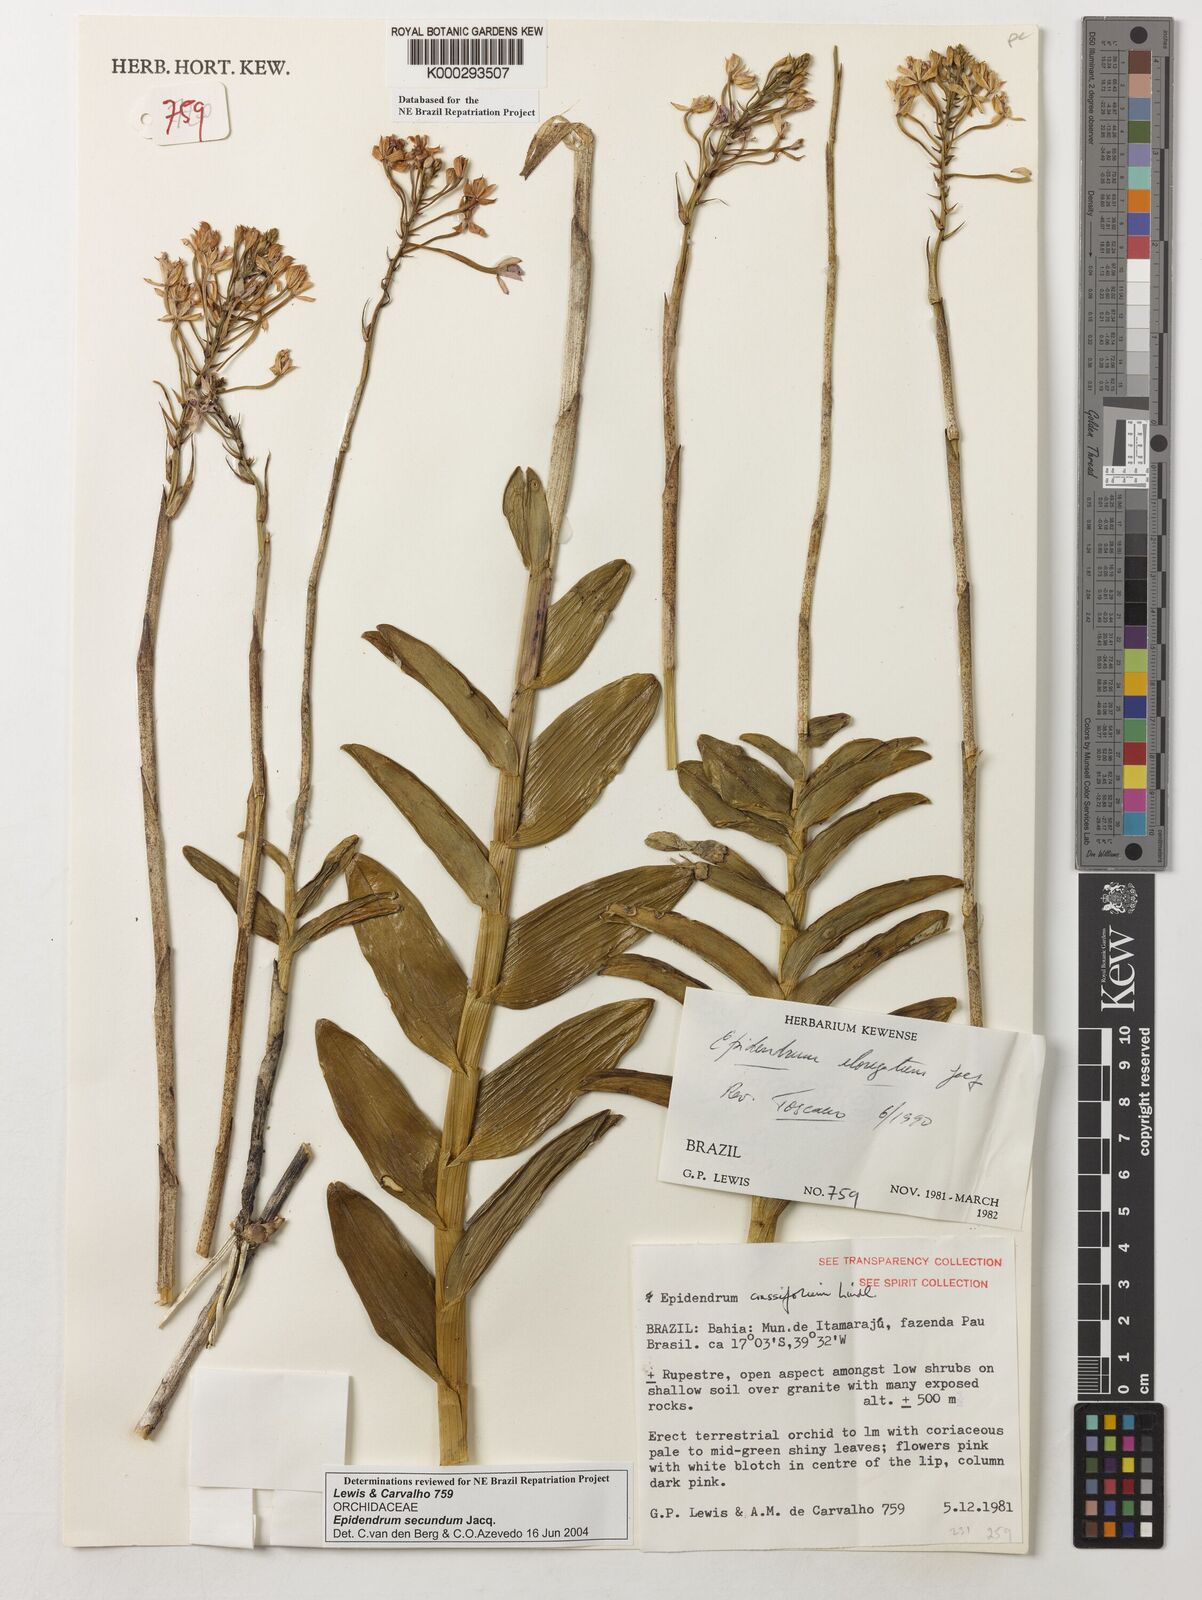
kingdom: Plantae
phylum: Tracheophyta
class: Liliopsida
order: Asparagales
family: Orchidaceae
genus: Epidendrum
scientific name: Epidendrum secundum
